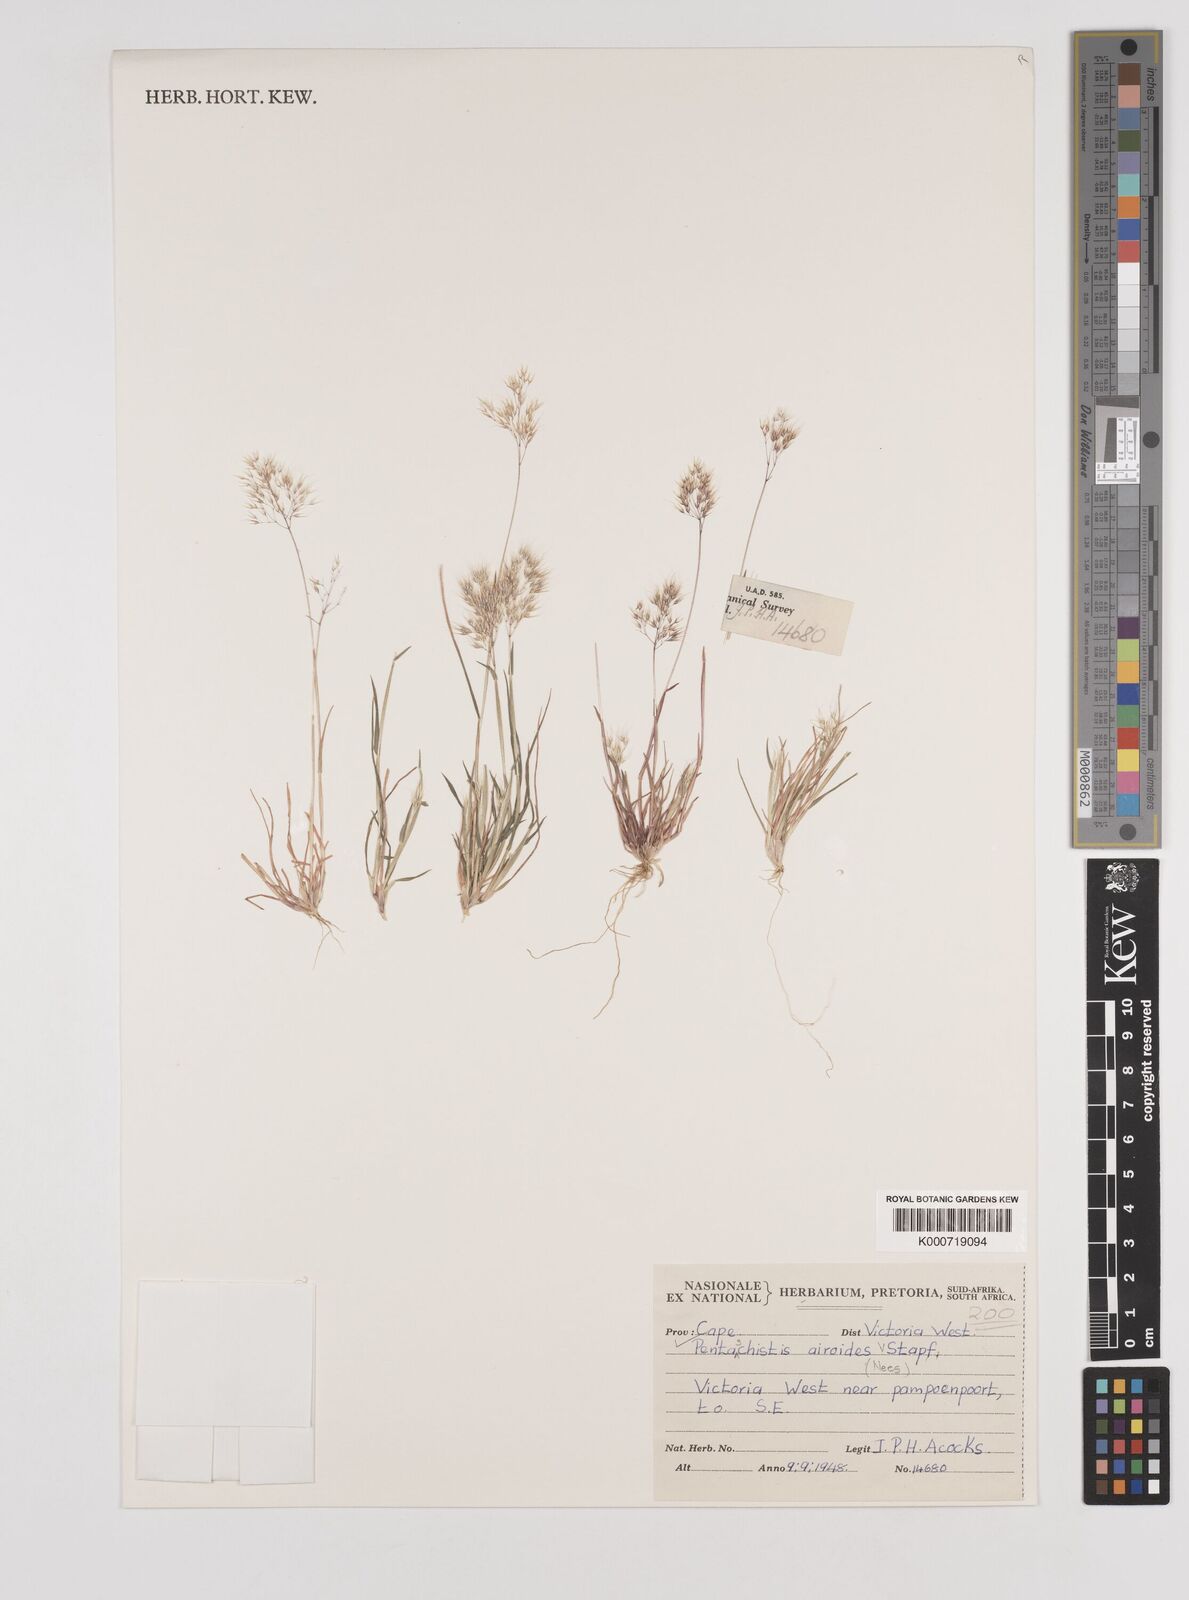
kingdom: Plantae
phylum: Tracheophyta
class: Liliopsida
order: Poales
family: Poaceae
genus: Pentameris
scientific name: Pentameris airoides
